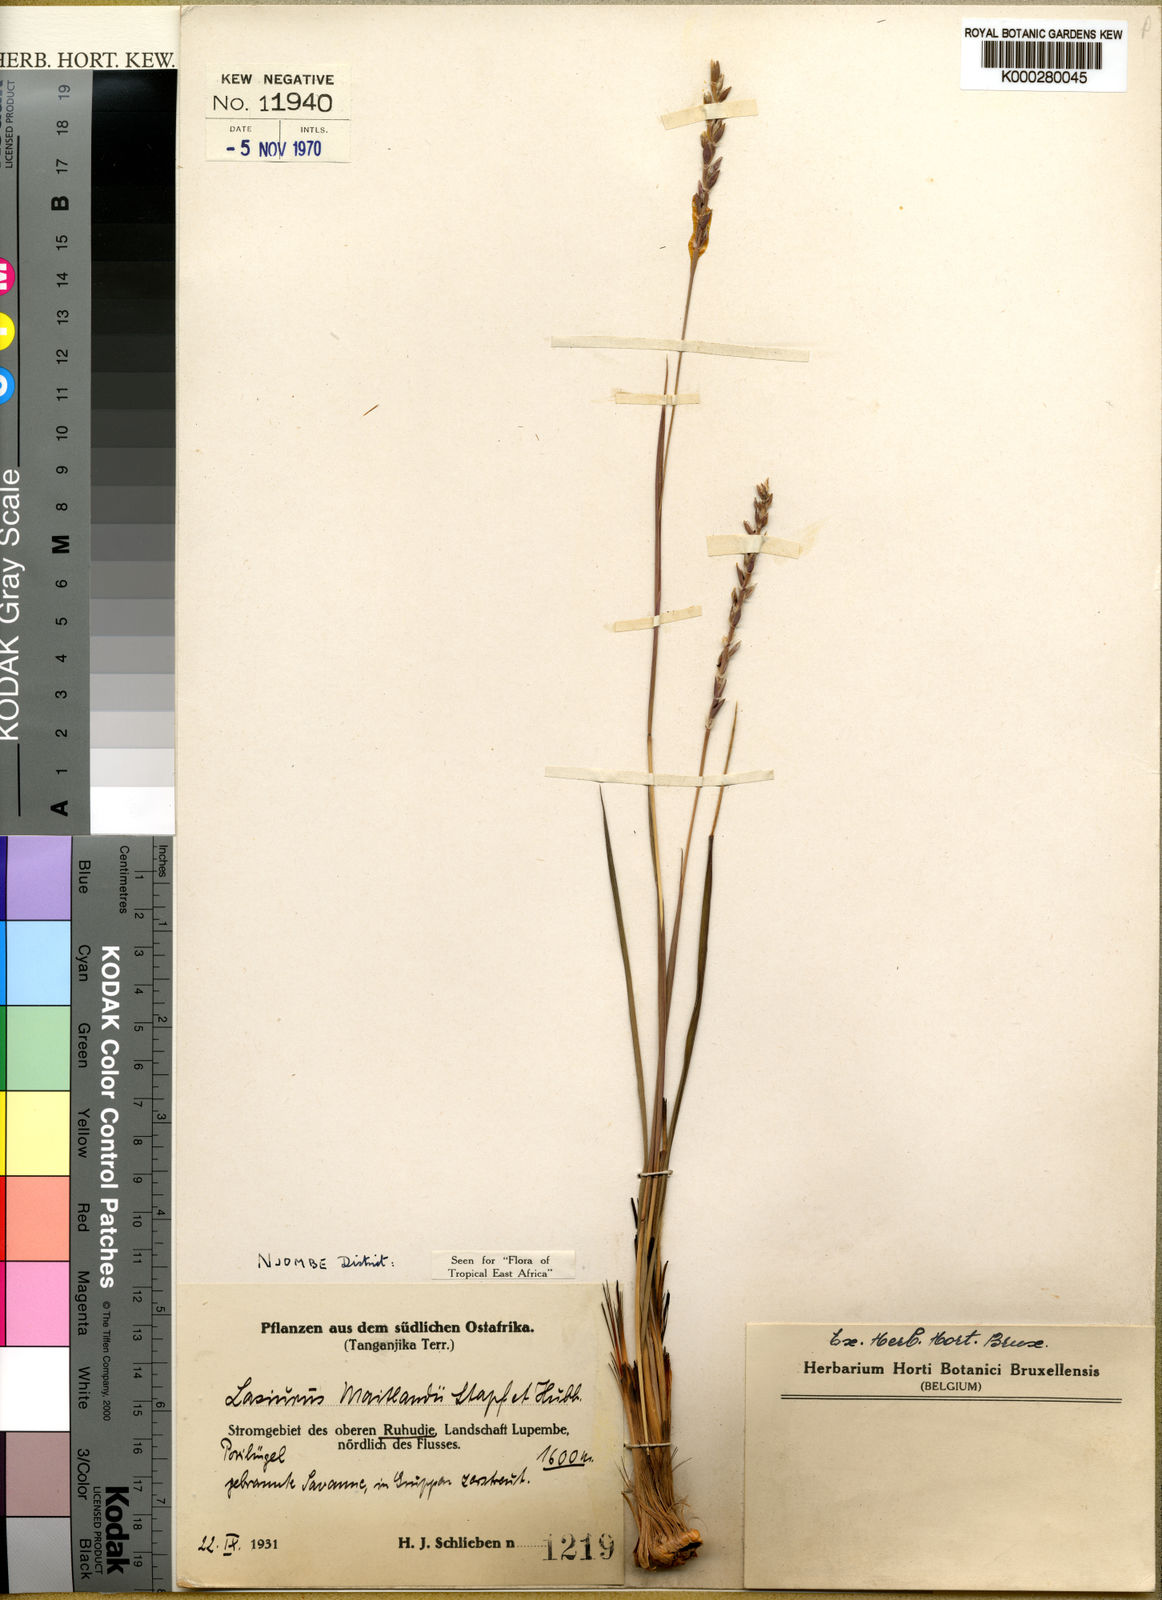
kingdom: Plantae
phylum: Tracheophyta
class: Liliopsida
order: Poales
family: Poaceae
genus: Loxodera
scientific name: Loxodera caespitosa
